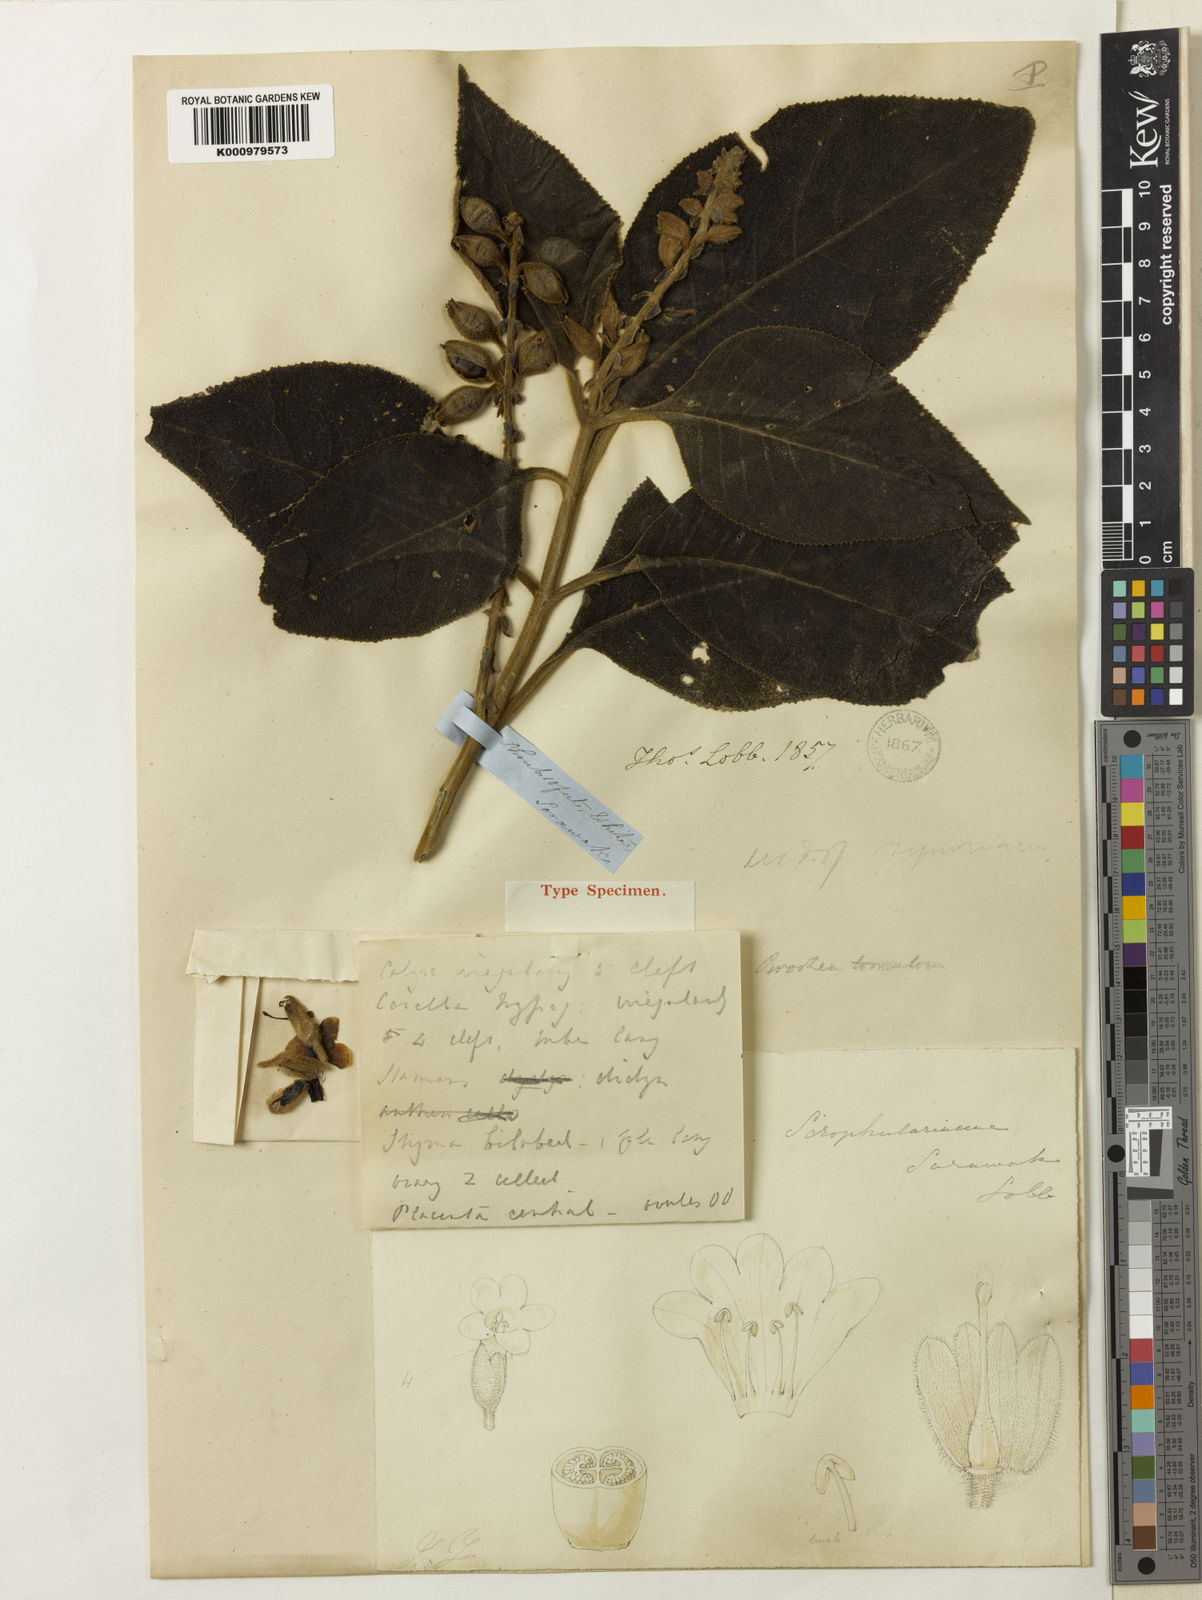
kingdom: Plantae
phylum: Tracheophyta
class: Magnoliopsida
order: Lamiales
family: Plantaginaceae
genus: Brookea
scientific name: Brookea tomentosa
